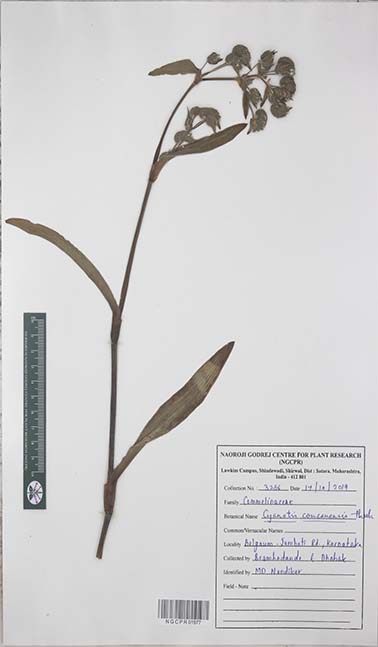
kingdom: Plantae
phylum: Tracheophyta
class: Liliopsida
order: Commelinales
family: Commelinaceae
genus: Cyanotis
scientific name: Cyanotis tuberosa
